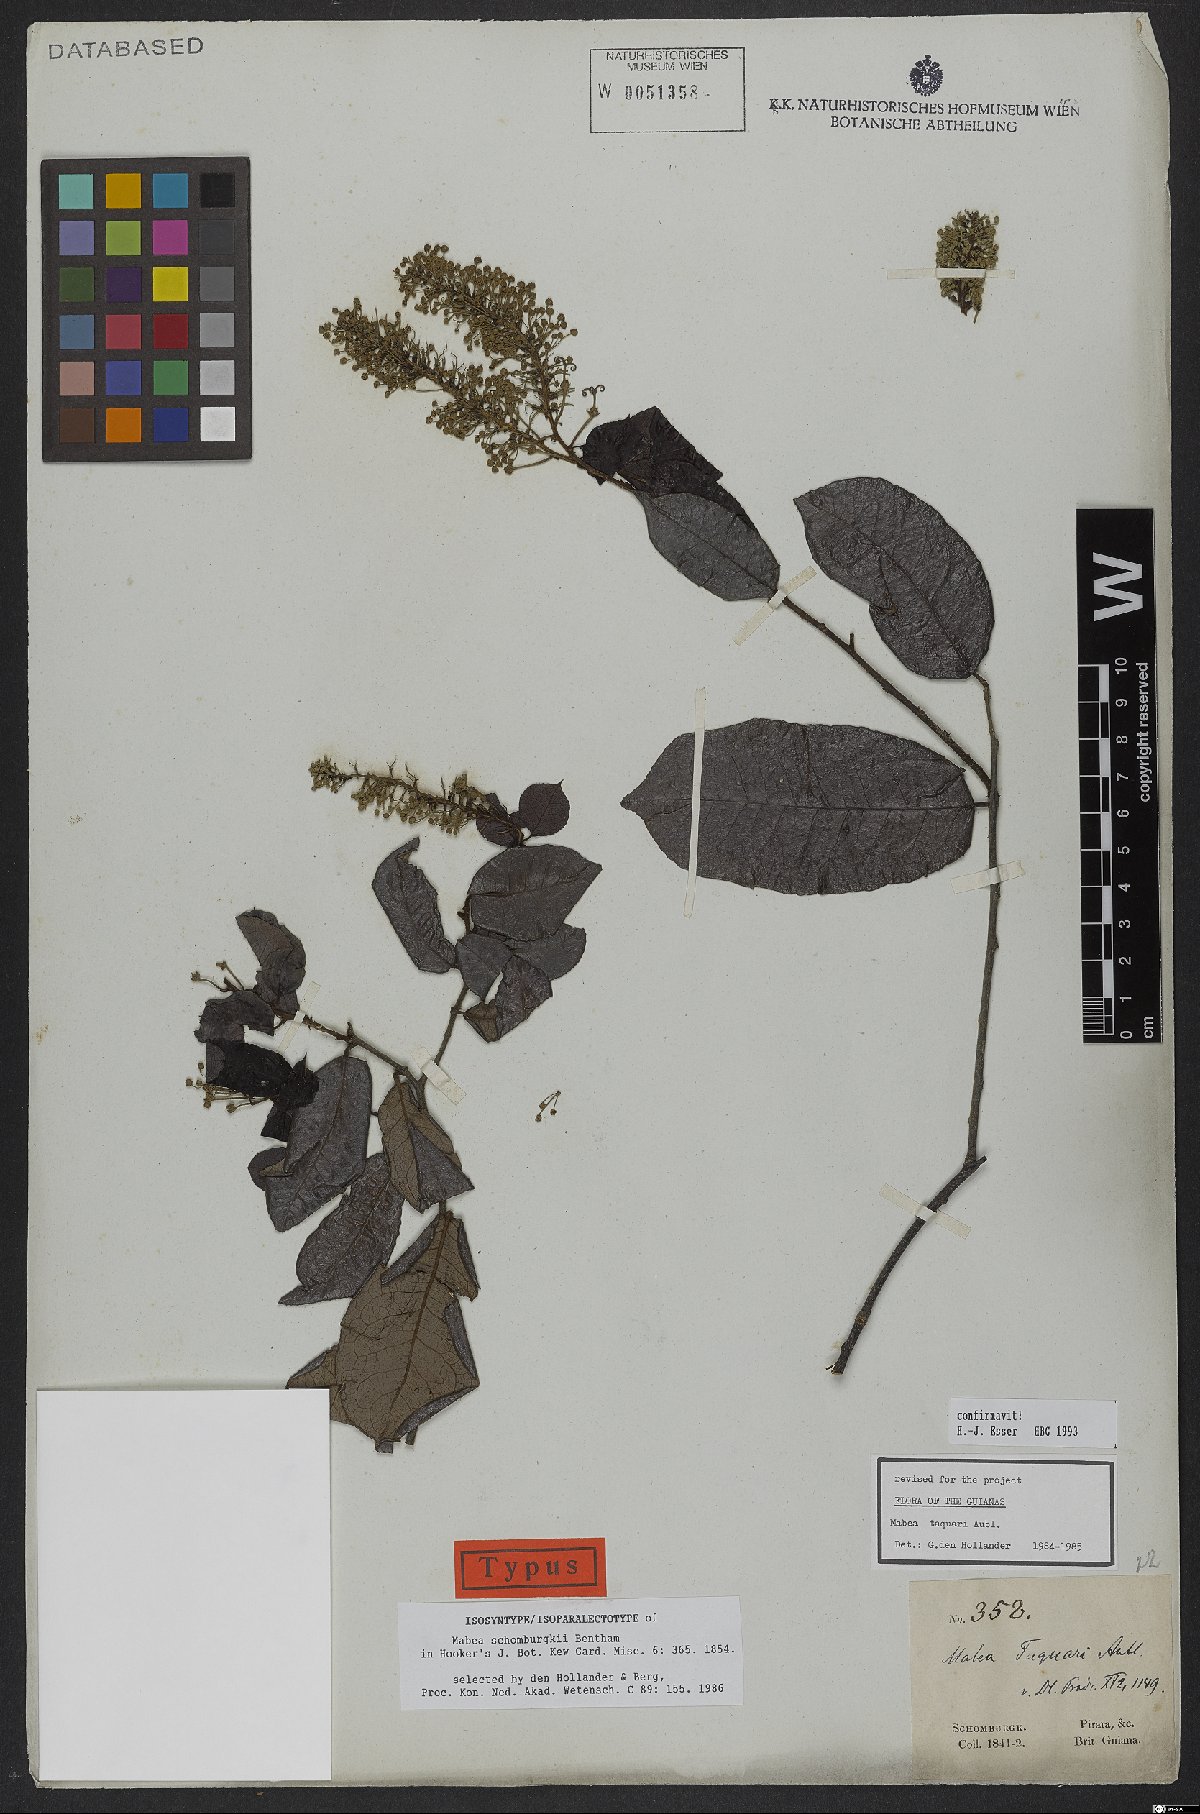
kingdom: Plantae
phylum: Tracheophyta
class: Magnoliopsida
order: Malpighiales
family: Euphorbiaceae
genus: Mabea
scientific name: Mabea taquari
